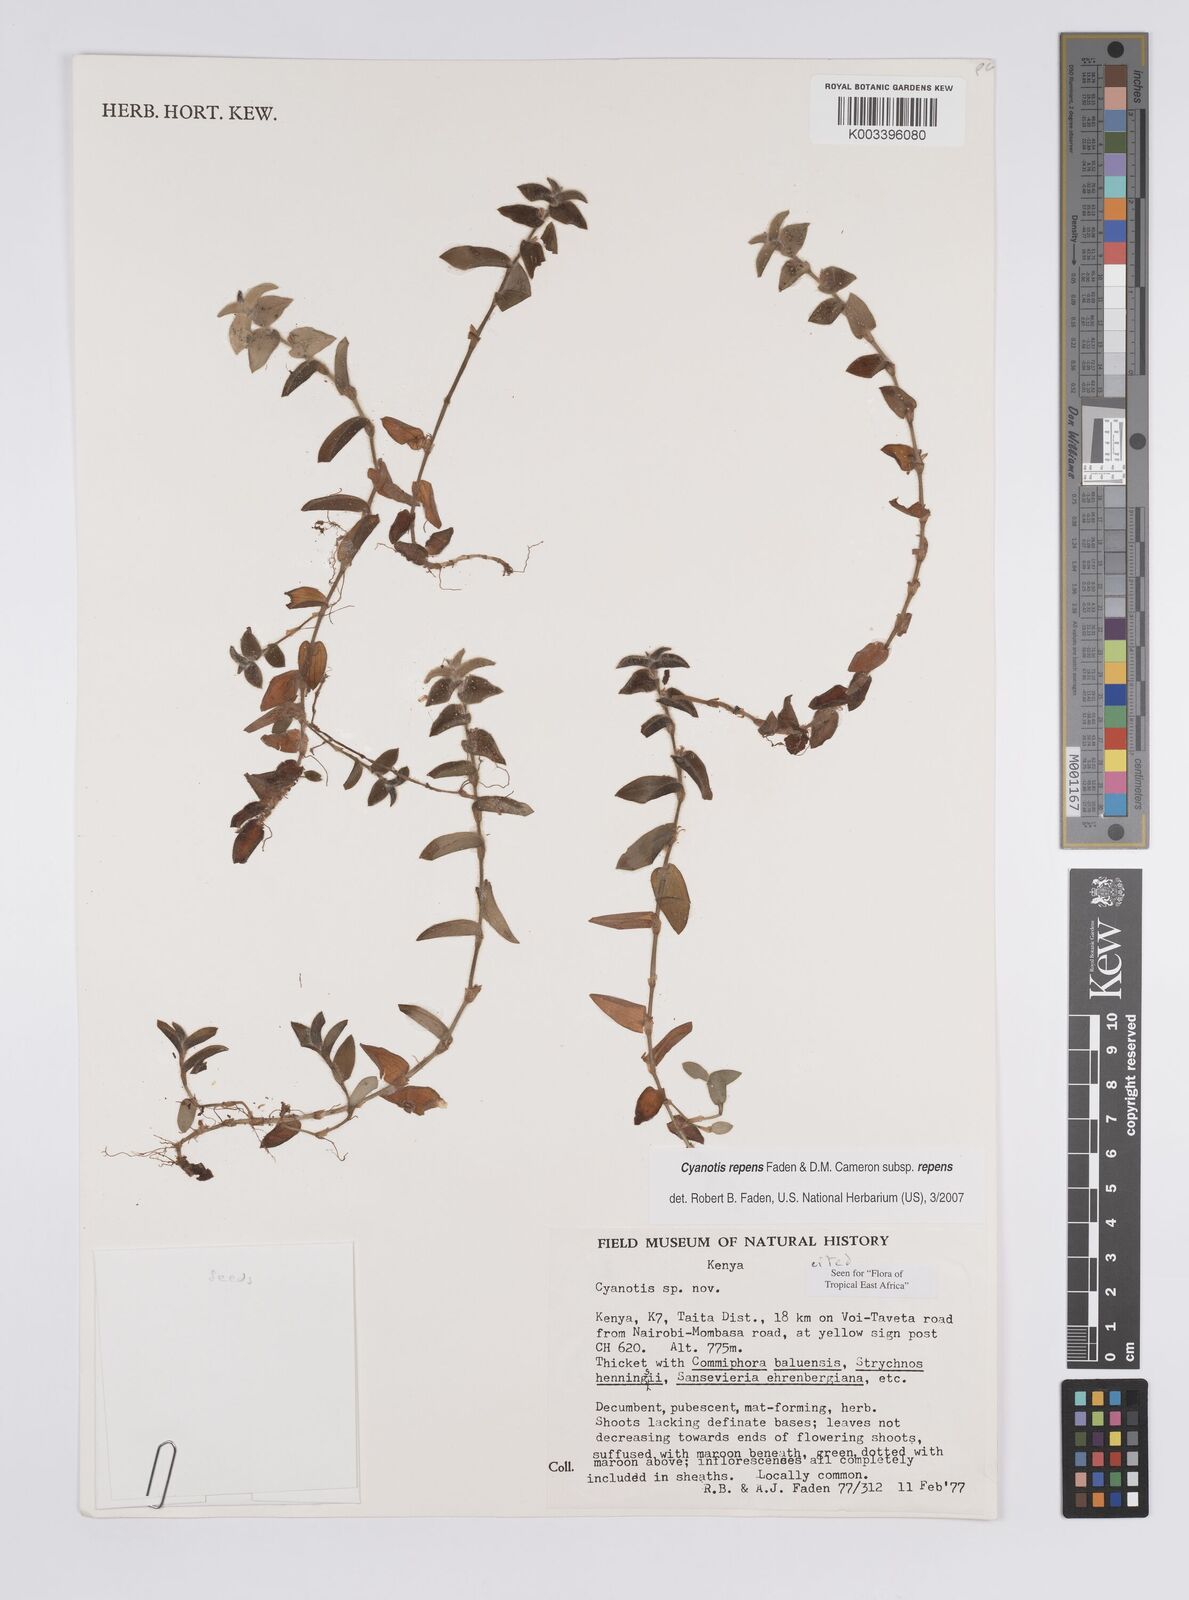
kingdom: Plantae
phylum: Tracheophyta
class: Liliopsida
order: Commelinales
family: Commelinaceae
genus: Cyanotis
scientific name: Cyanotis repens
